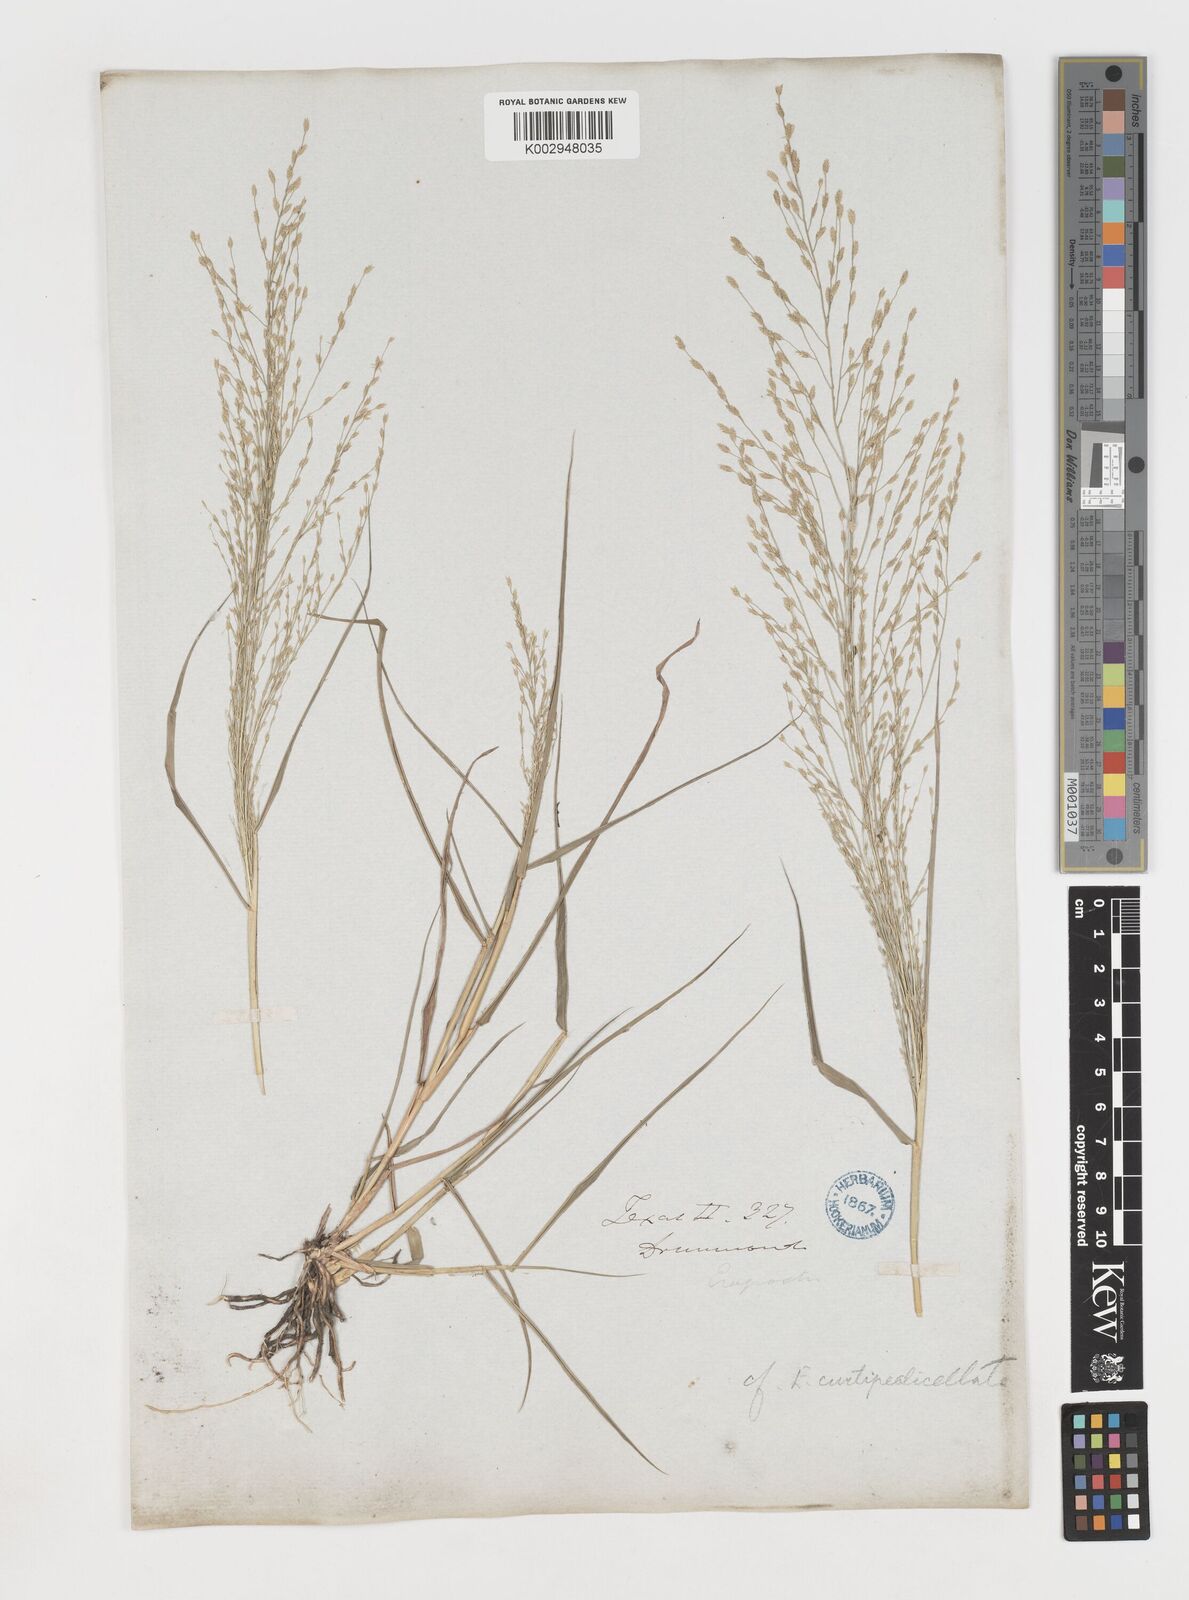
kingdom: Plantae
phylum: Tracheophyta
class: Liliopsida
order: Poales
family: Poaceae
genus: Eragrostis
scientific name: Eragrostis curtipedicellata
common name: Gummy love grass
